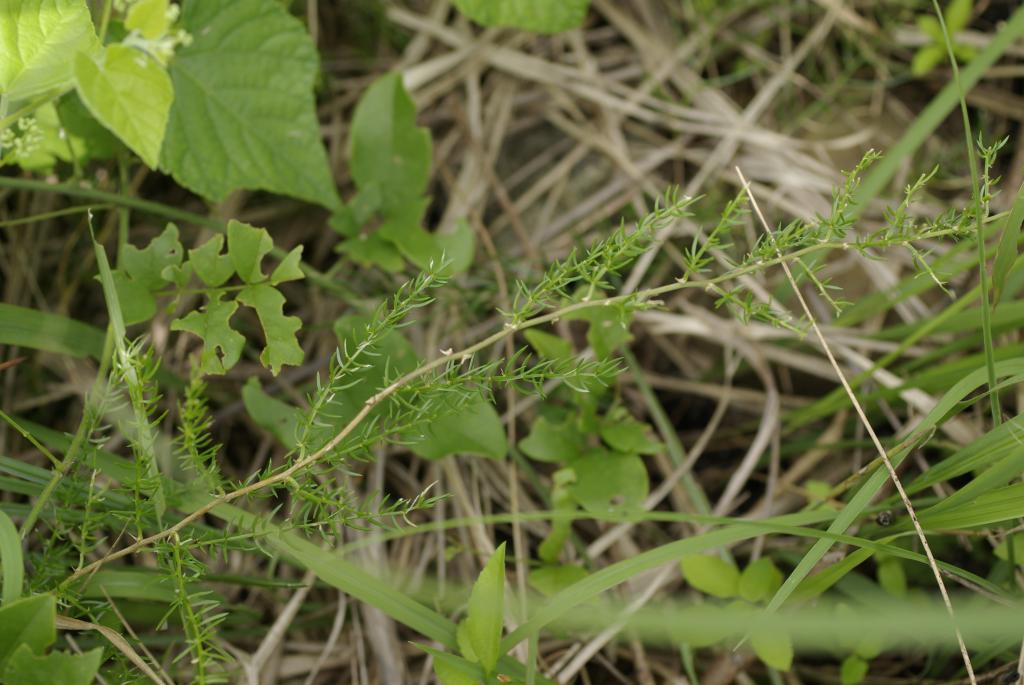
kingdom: Plantae
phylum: Tracheophyta
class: Liliopsida
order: Asparagales
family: Asparagaceae
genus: Asparagus
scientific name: Asparagus cochinchinensis
